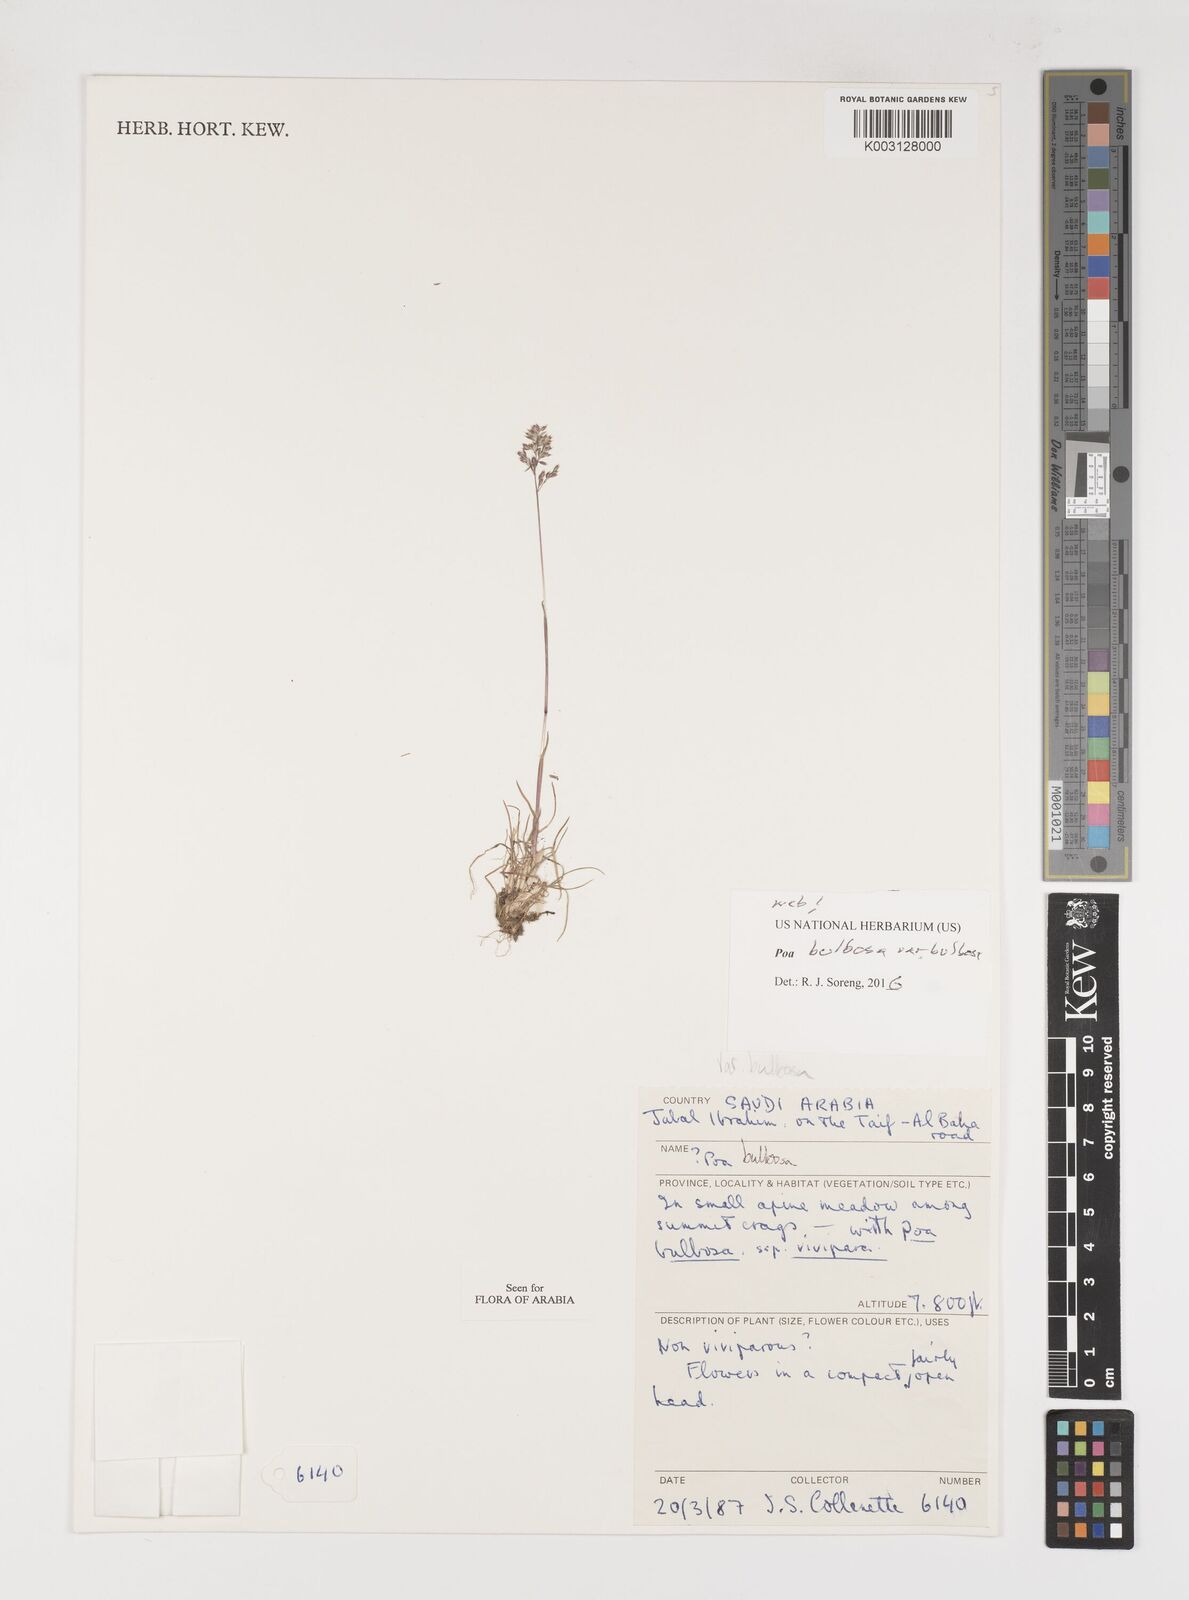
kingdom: Plantae
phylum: Tracheophyta
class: Liliopsida
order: Poales
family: Poaceae
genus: Poa
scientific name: Poa bulbosa
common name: Bulbous bluegrass
